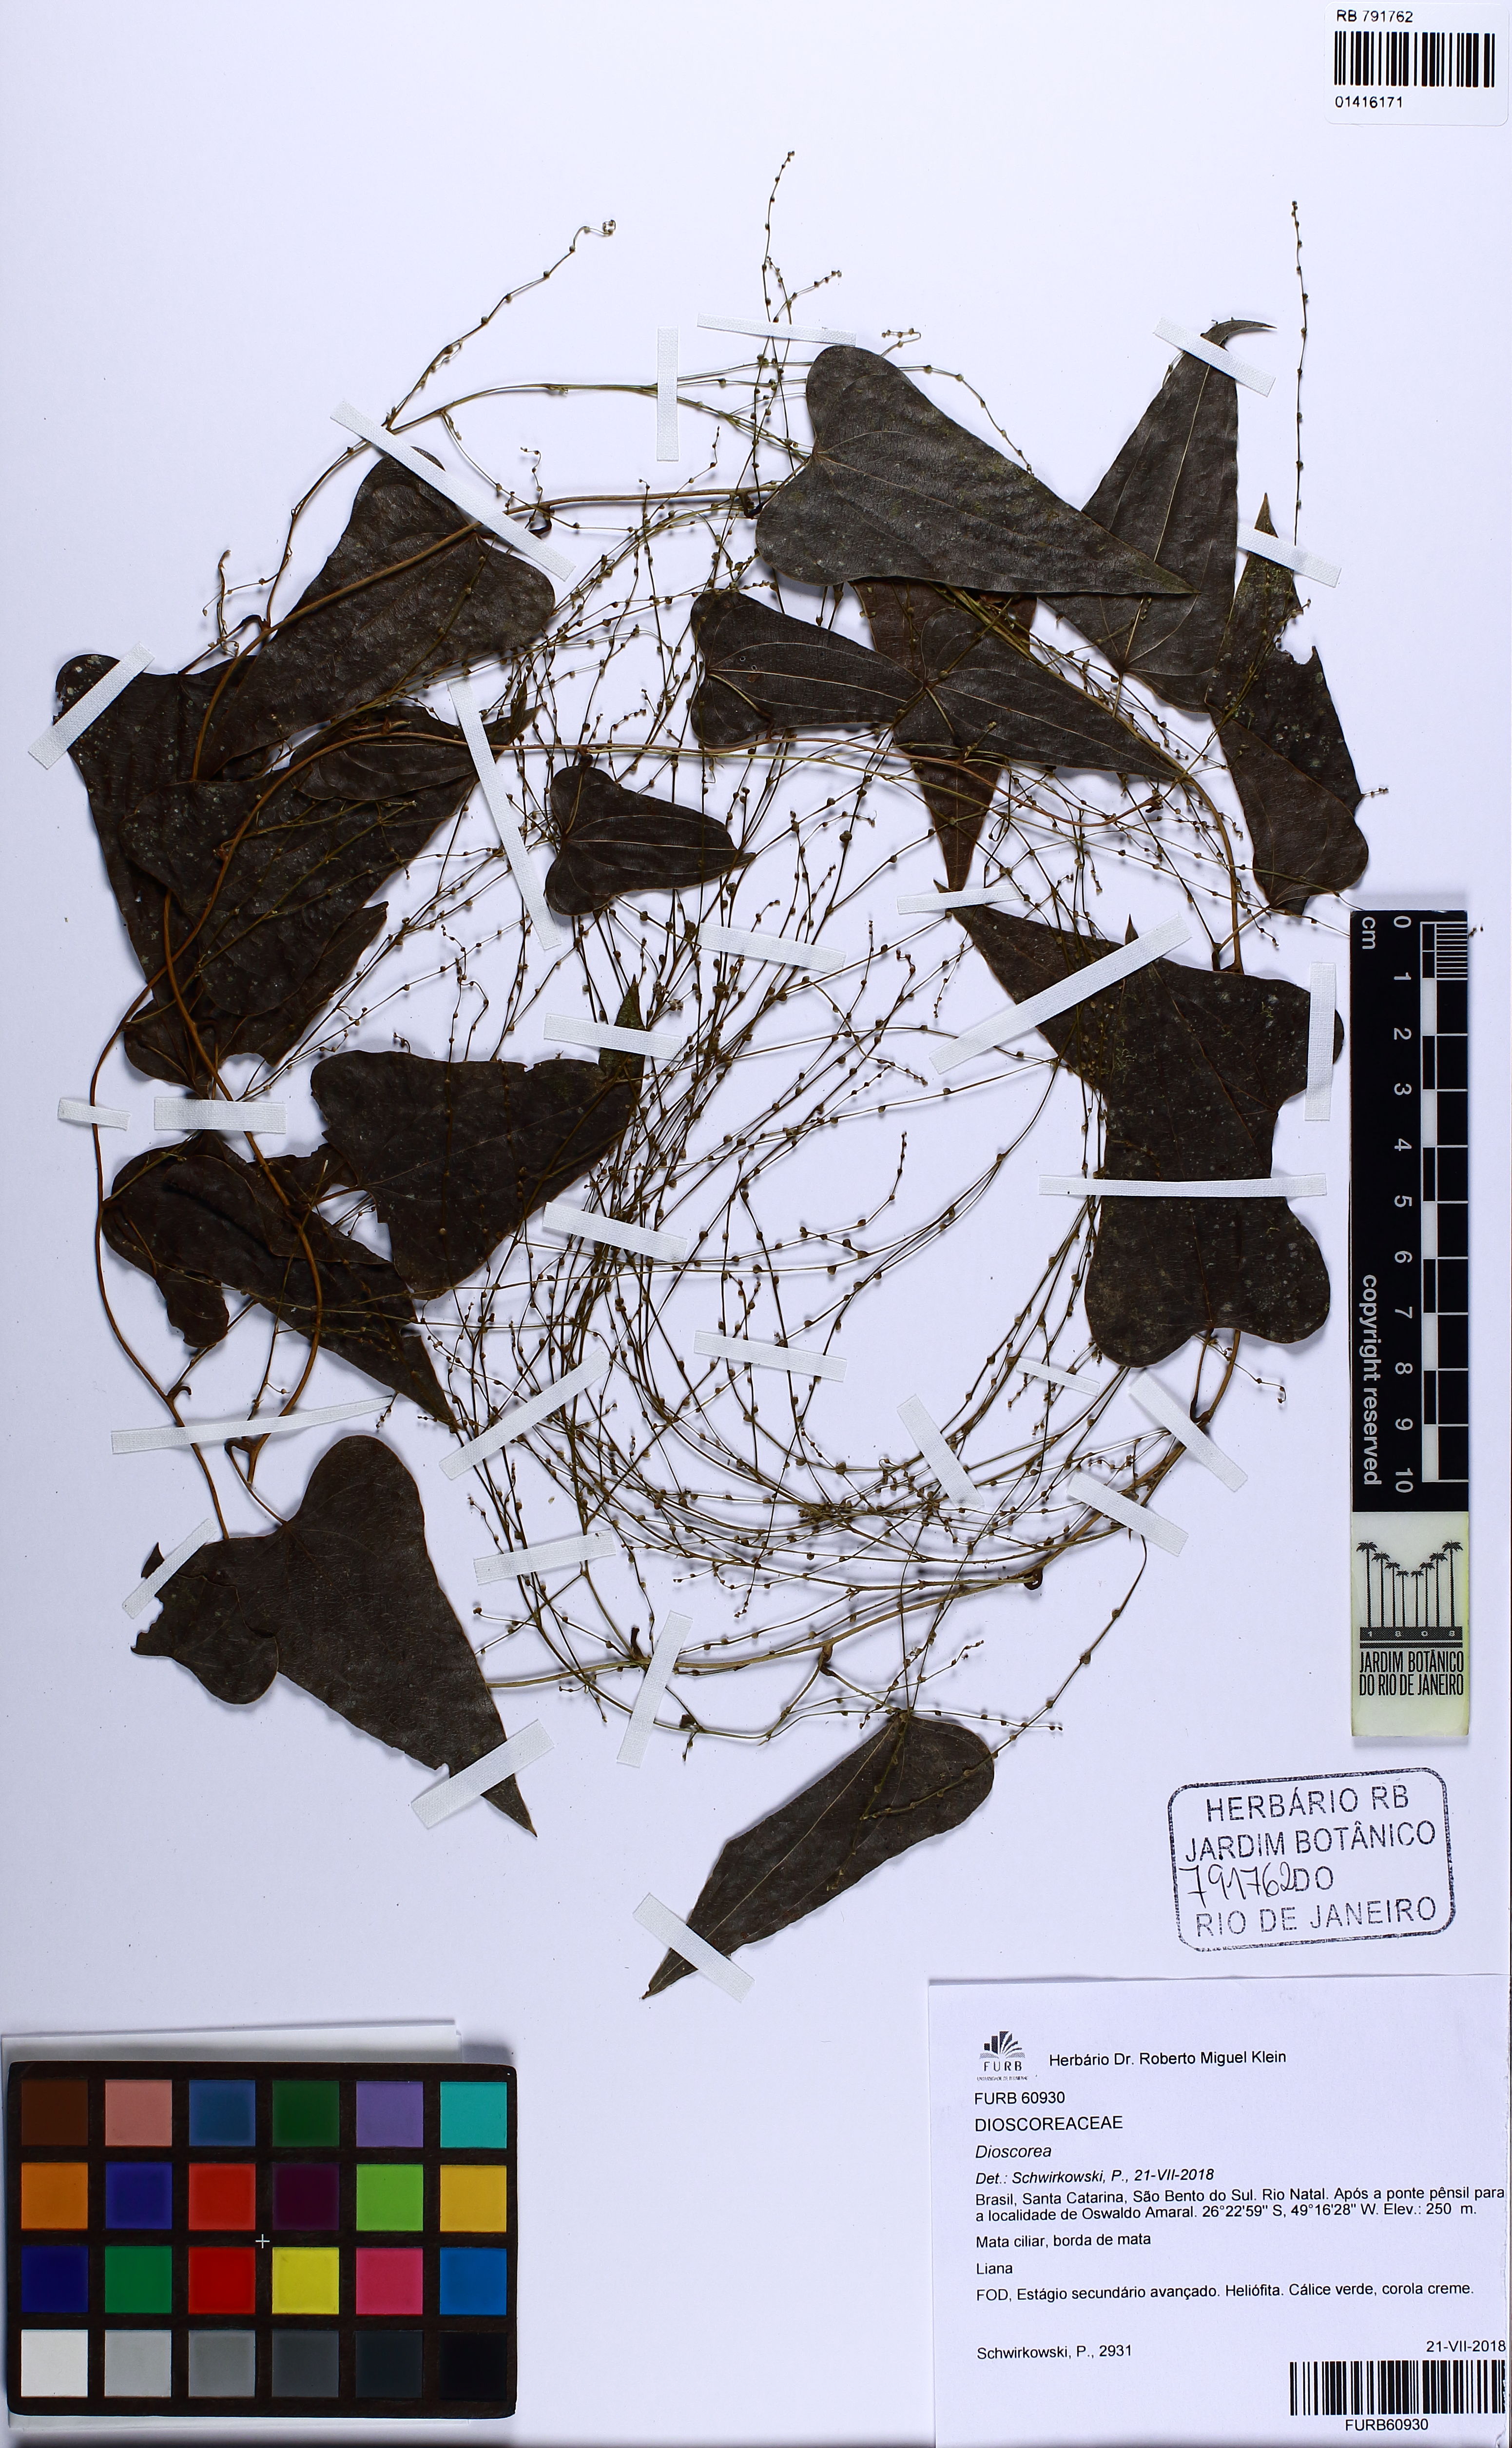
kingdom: Plantae
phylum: Tracheophyta
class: Liliopsida
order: Dioscoreales
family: Dioscoreaceae
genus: Dioscorea
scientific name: Dioscorea multiflora
